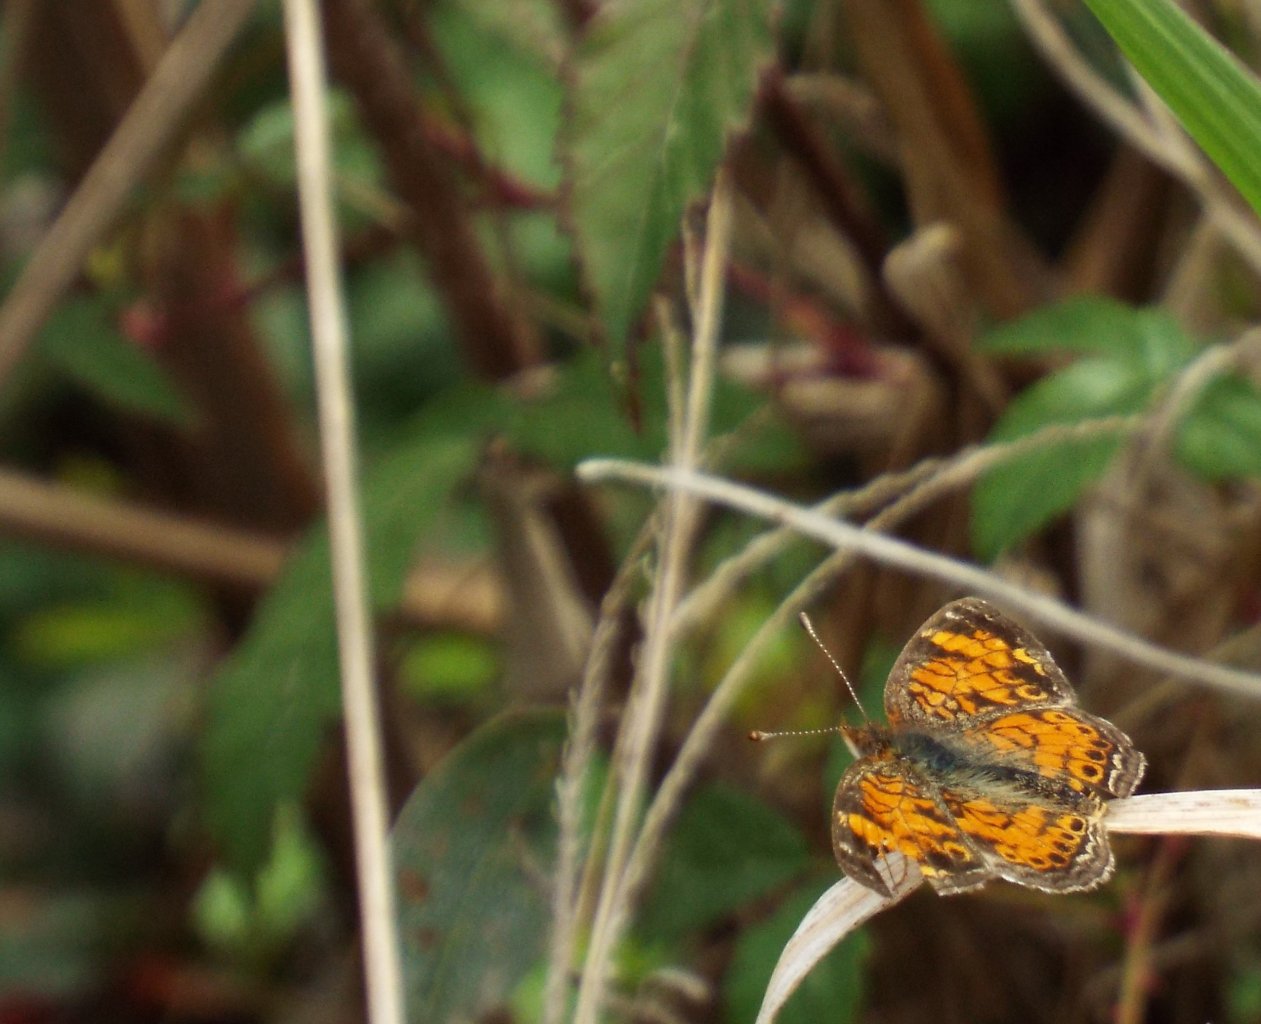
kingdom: Animalia
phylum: Arthropoda
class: Insecta
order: Lepidoptera
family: Nymphalidae
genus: Phyciodes
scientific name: Phyciodes tharos
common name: Pearl Crescent
